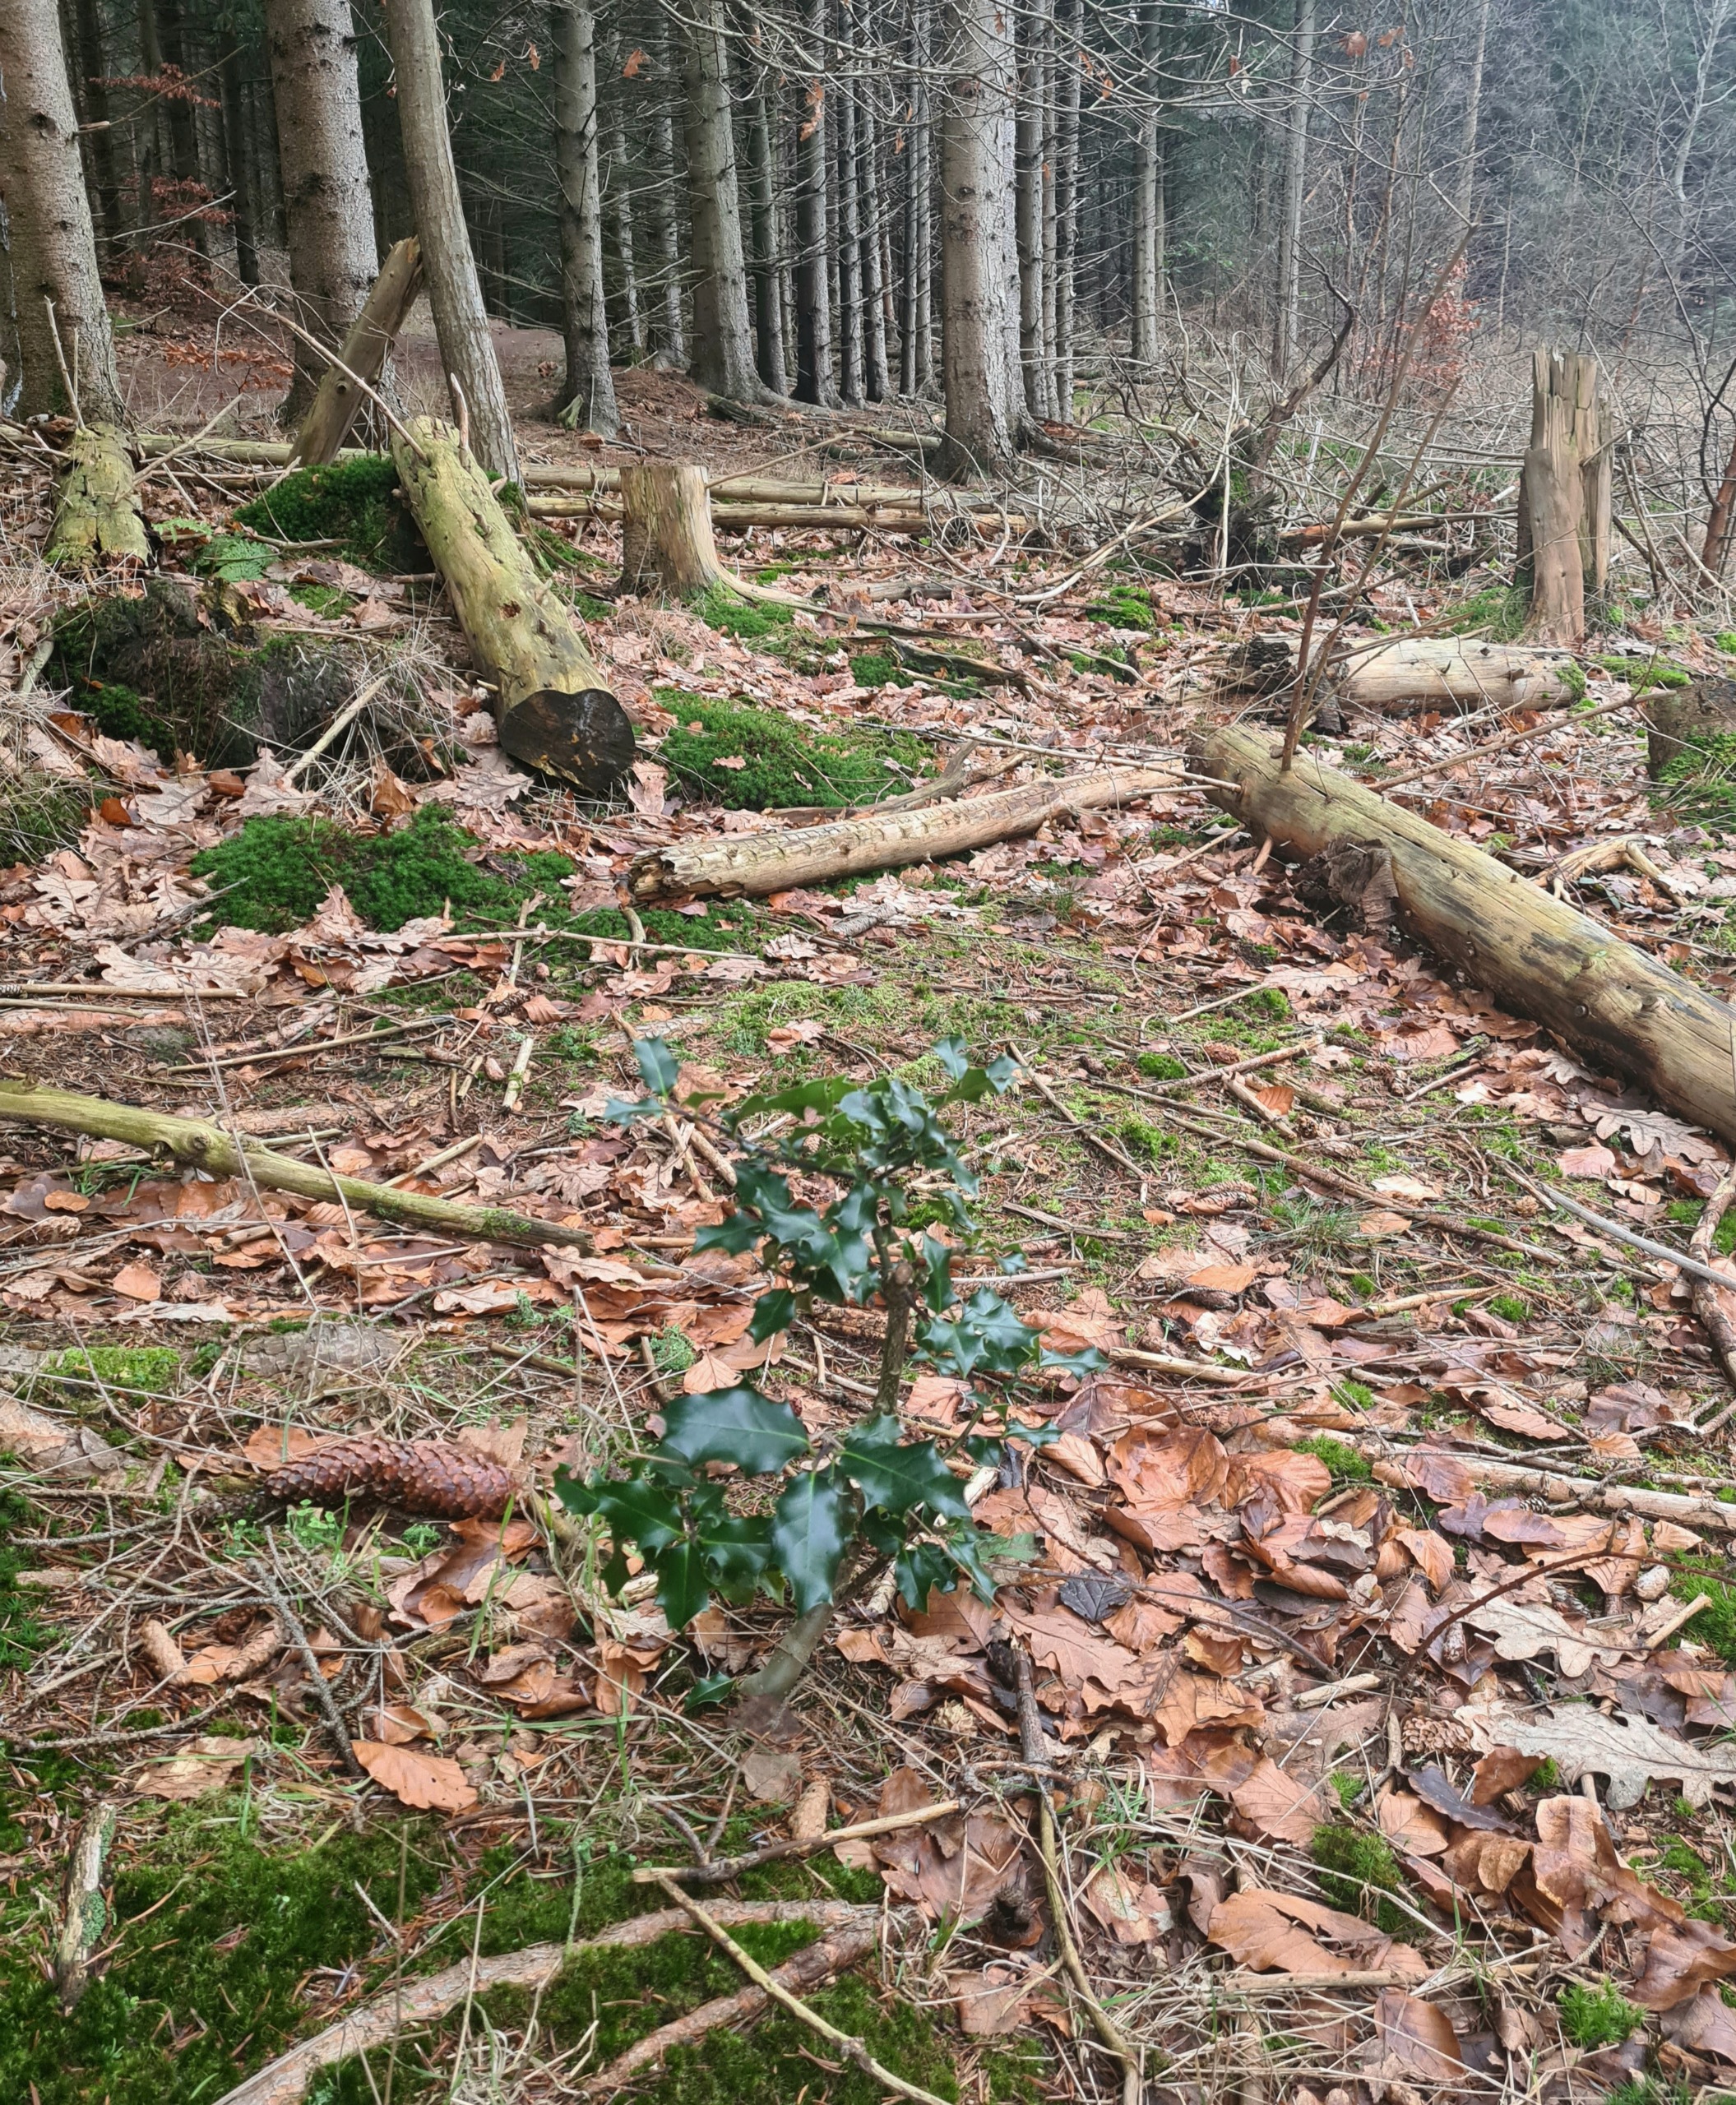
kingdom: Plantae
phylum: Tracheophyta
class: Magnoliopsida
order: Aquifoliales
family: Aquifoliaceae
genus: Ilex
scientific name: Ilex aquifolium
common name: Kristtorn
